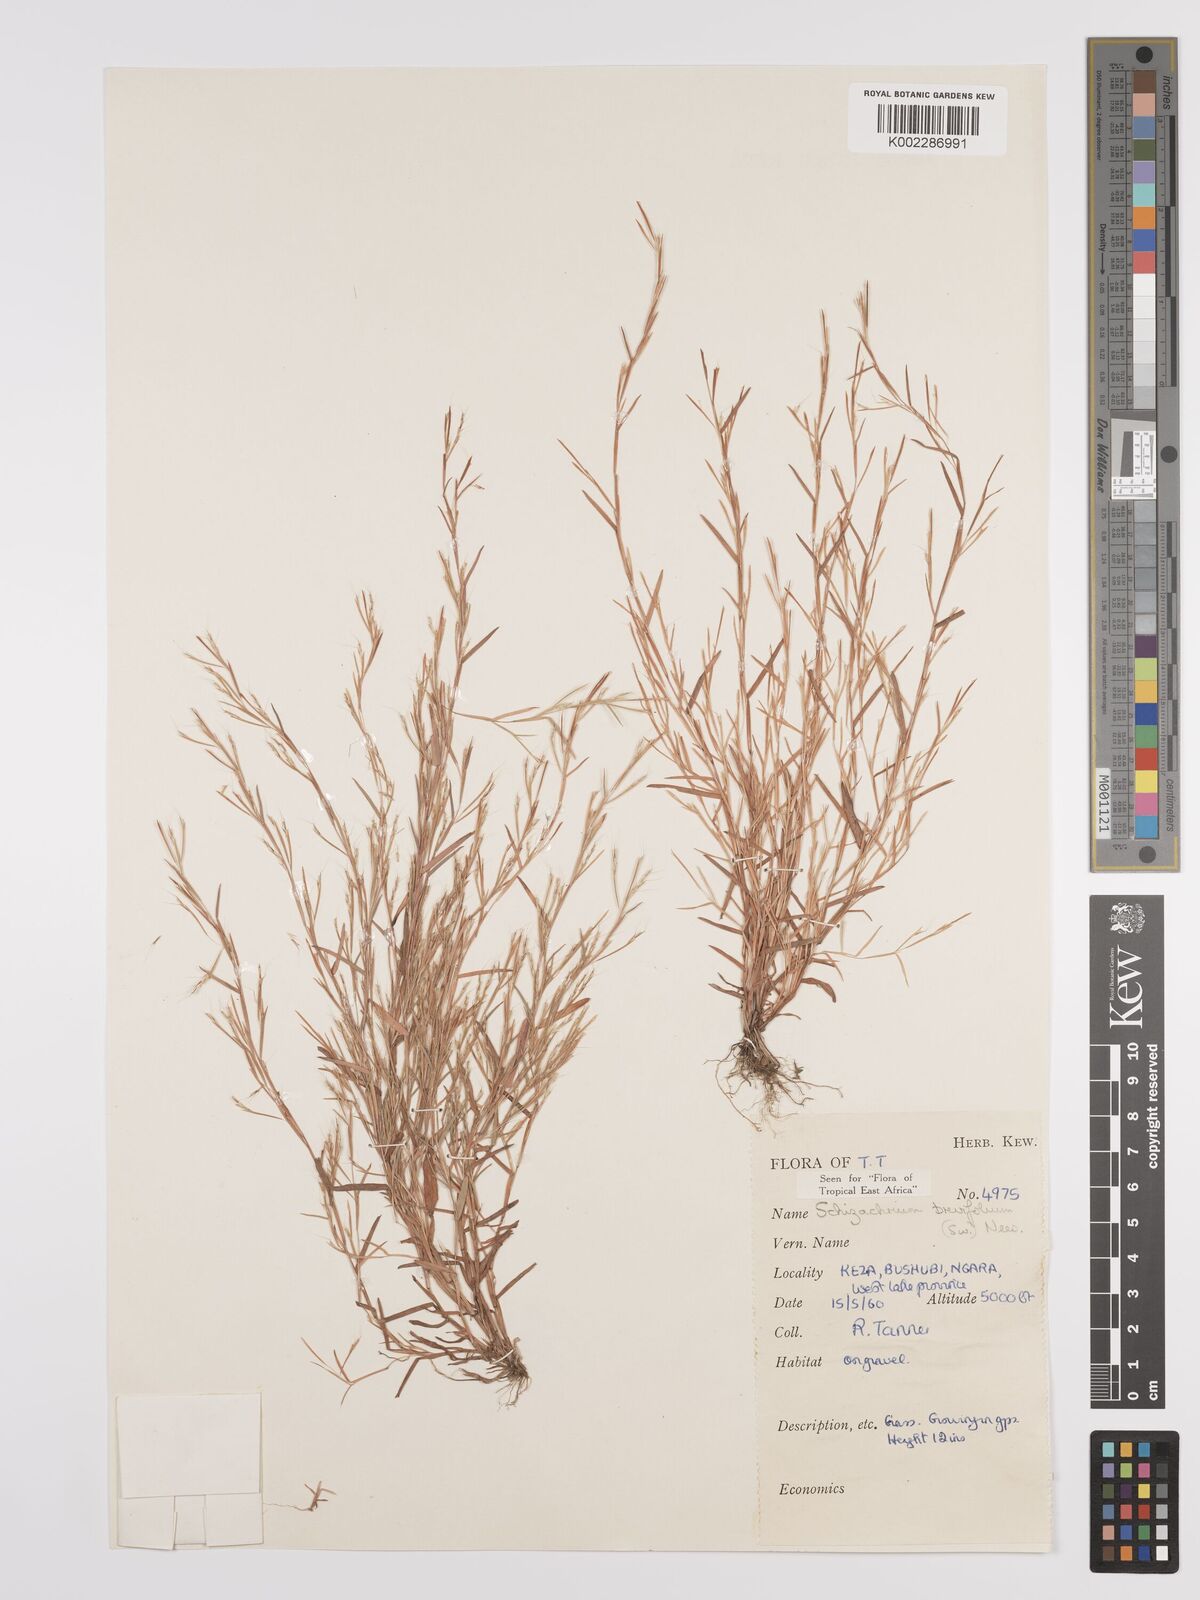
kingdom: Plantae
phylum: Tracheophyta
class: Liliopsida
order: Poales
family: Poaceae
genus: Schizachyrium
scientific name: Schizachyrium brevifolium
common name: Serillo dulce
